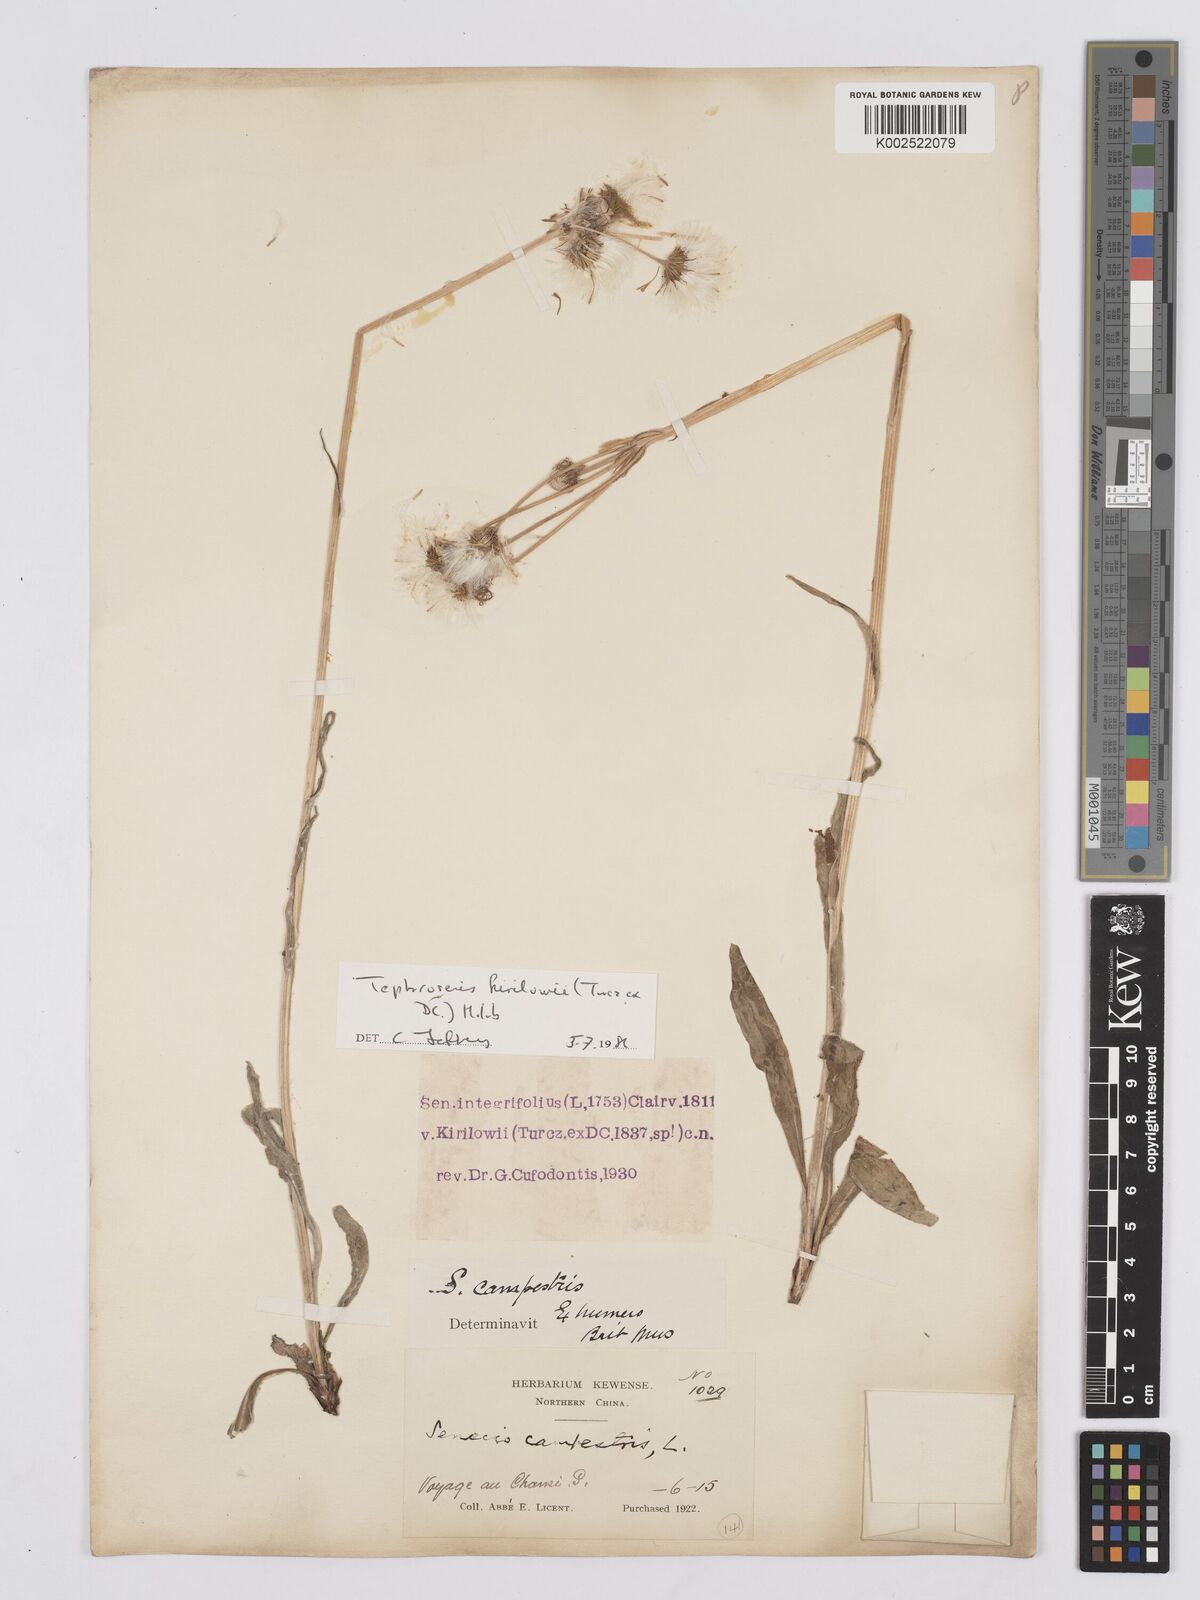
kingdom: Plantae
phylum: Tracheophyta
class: Magnoliopsida
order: Asterales
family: Asteraceae
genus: Tephroseris
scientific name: Tephroseris kirilowii
